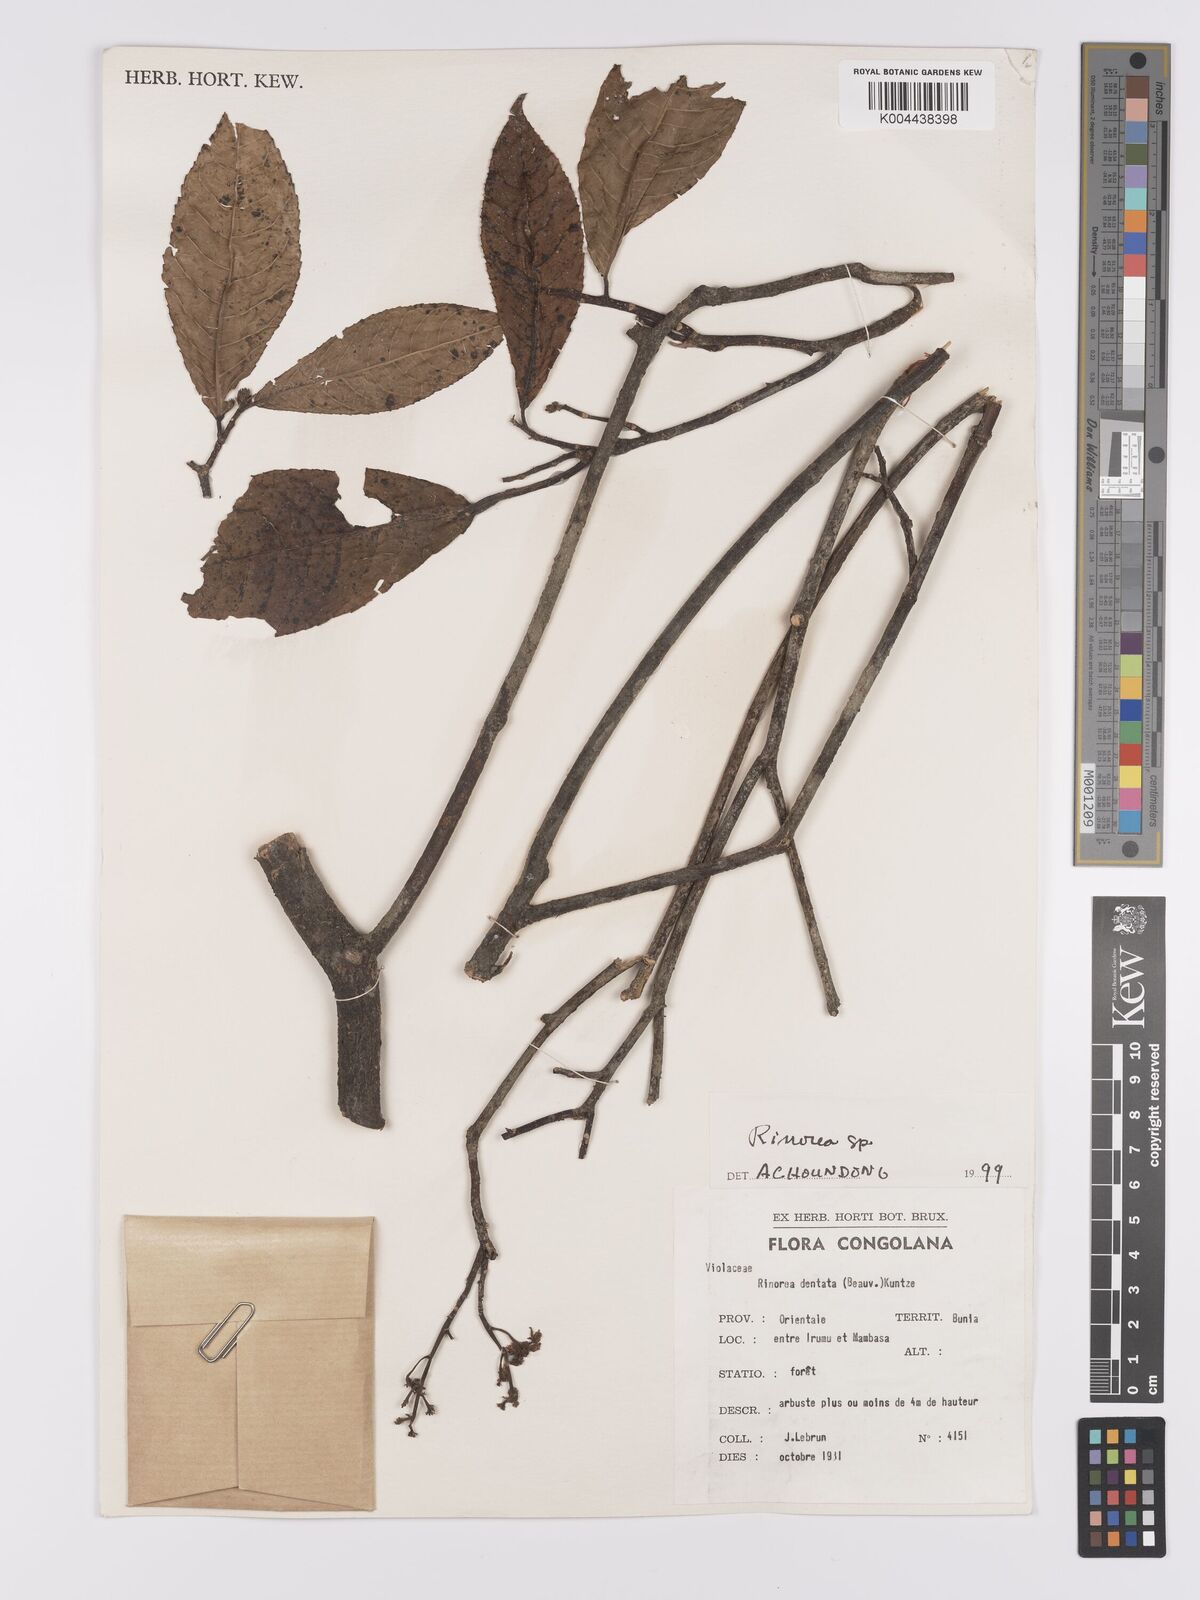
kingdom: Plantae
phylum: Tracheophyta
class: Magnoliopsida
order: Malpighiales
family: Violaceae
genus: Rinorea
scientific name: Rinorea
